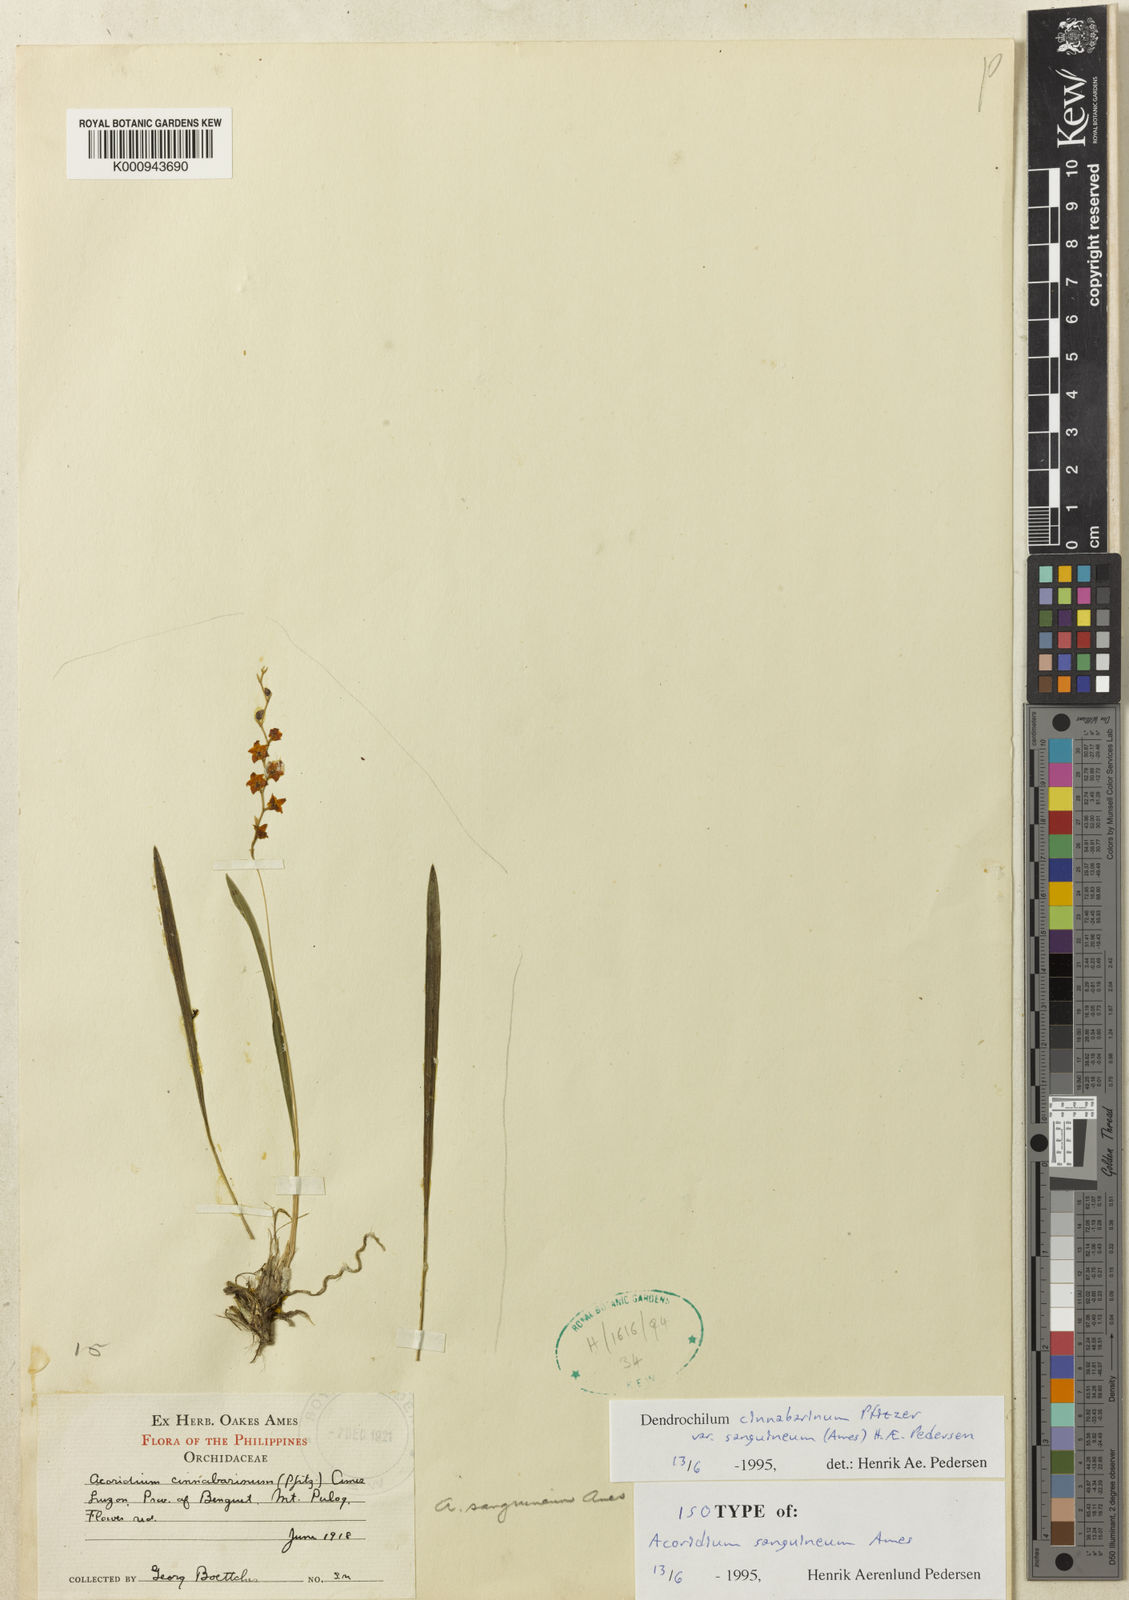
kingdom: Plantae
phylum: Tracheophyta
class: Liliopsida
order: Asparagales
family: Orchidaceae
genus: Coelogyne
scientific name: Coelogyne cinnabarina
